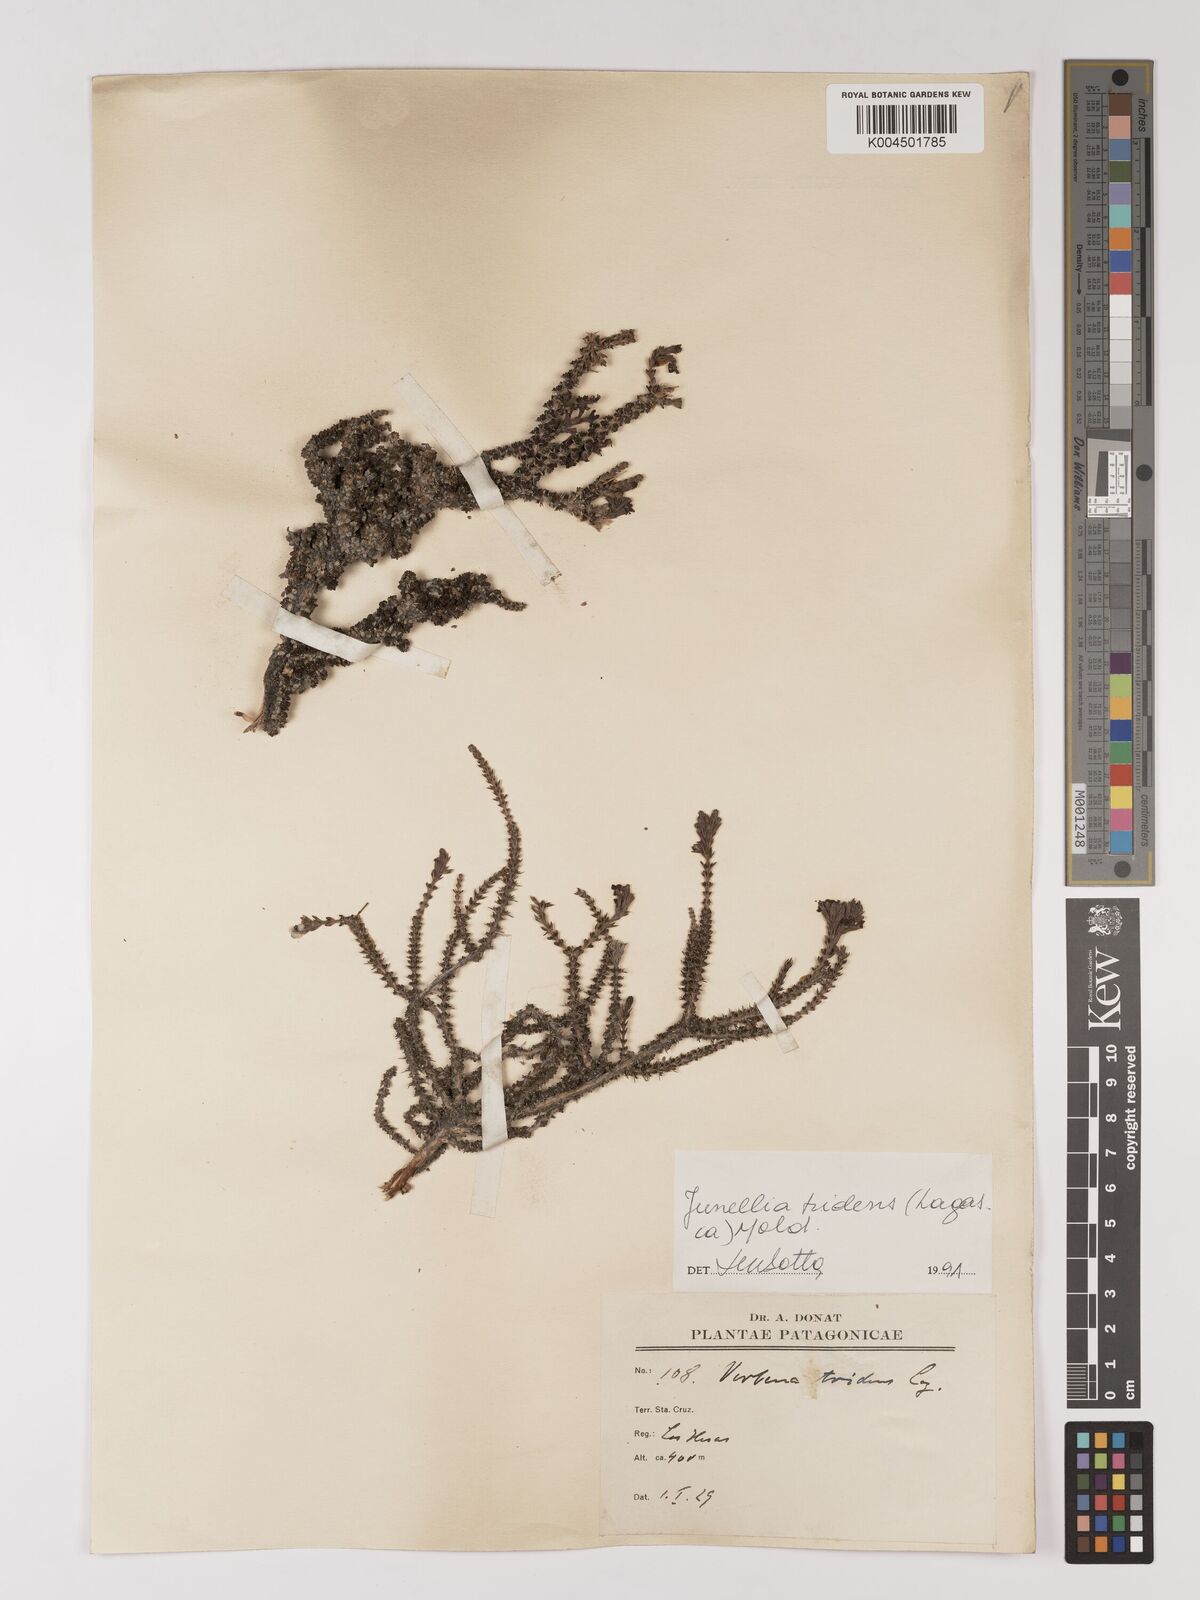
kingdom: Plantae
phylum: Tracheophyta
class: Magnoliopsida
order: Lamiales
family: Verbenaceae
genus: Mulguraea
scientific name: Mulguraea tridens
